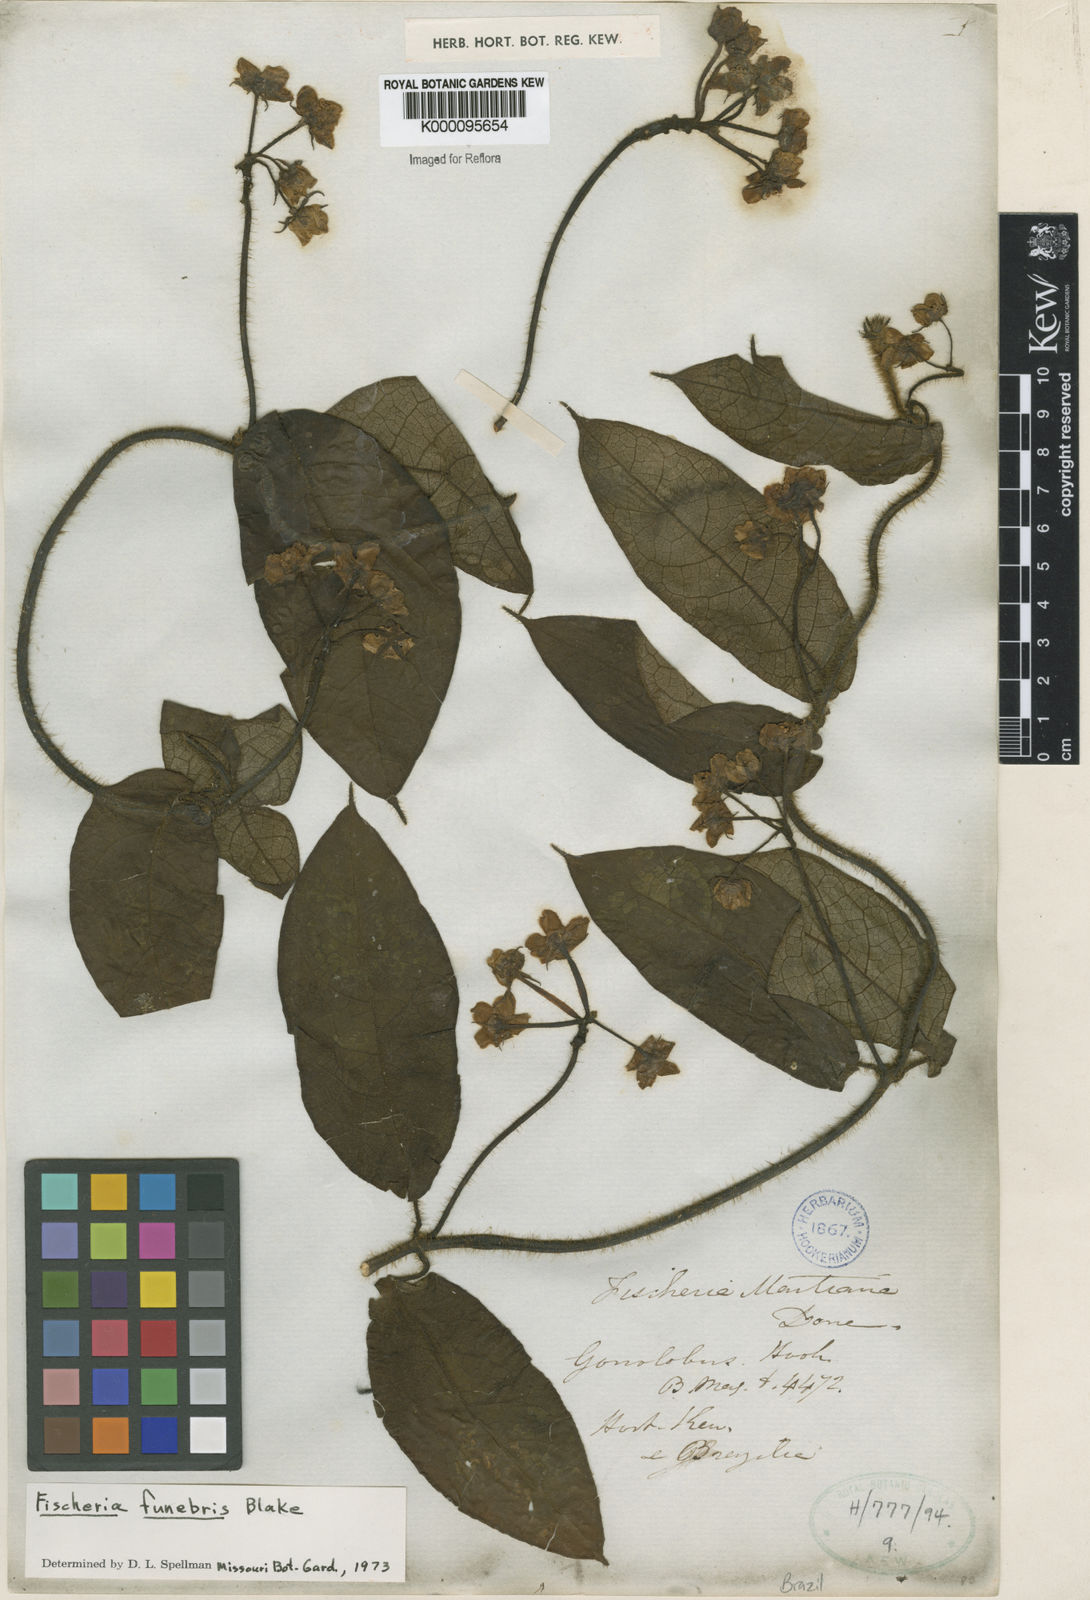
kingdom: Plantae
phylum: Tracheophyta
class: Magnoliopsida
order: Gentianales
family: Apocynaceae
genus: Fischeria
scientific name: Fischeria billbergiana
